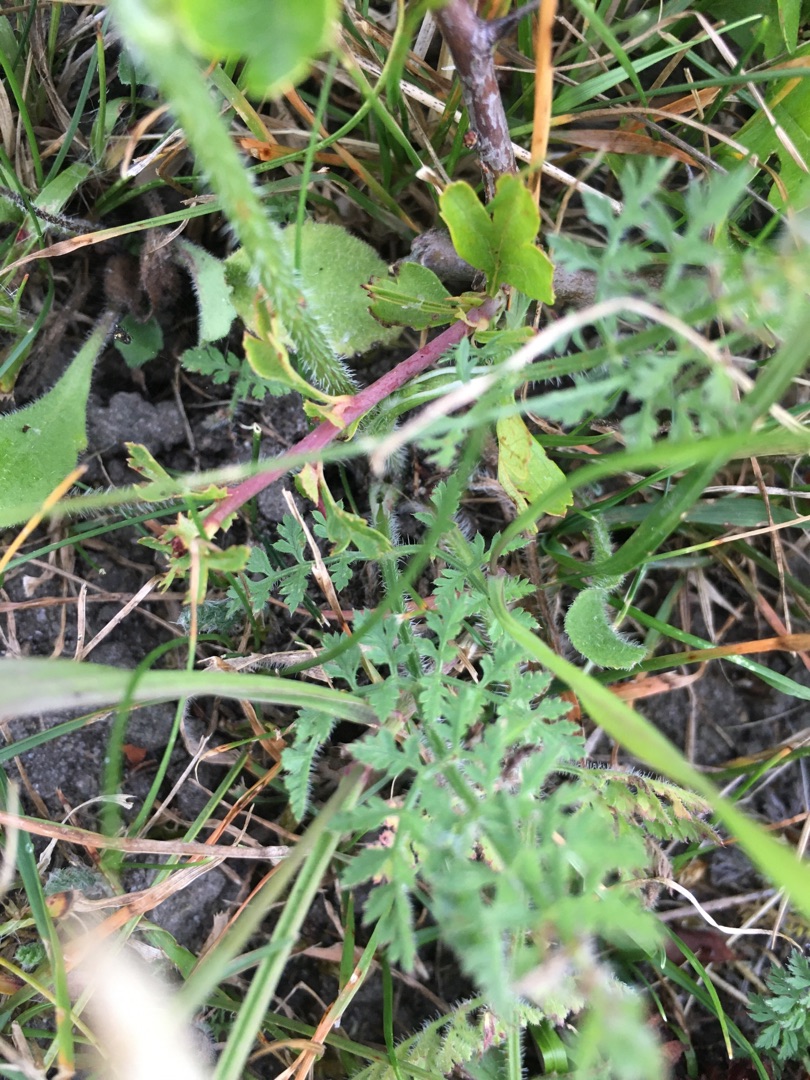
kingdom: Plantae
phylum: Tracheophyta
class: Magnoliopsida
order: Apiales
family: Apiaceae
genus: Daucus
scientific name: Daucus carota
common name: Gulerod
